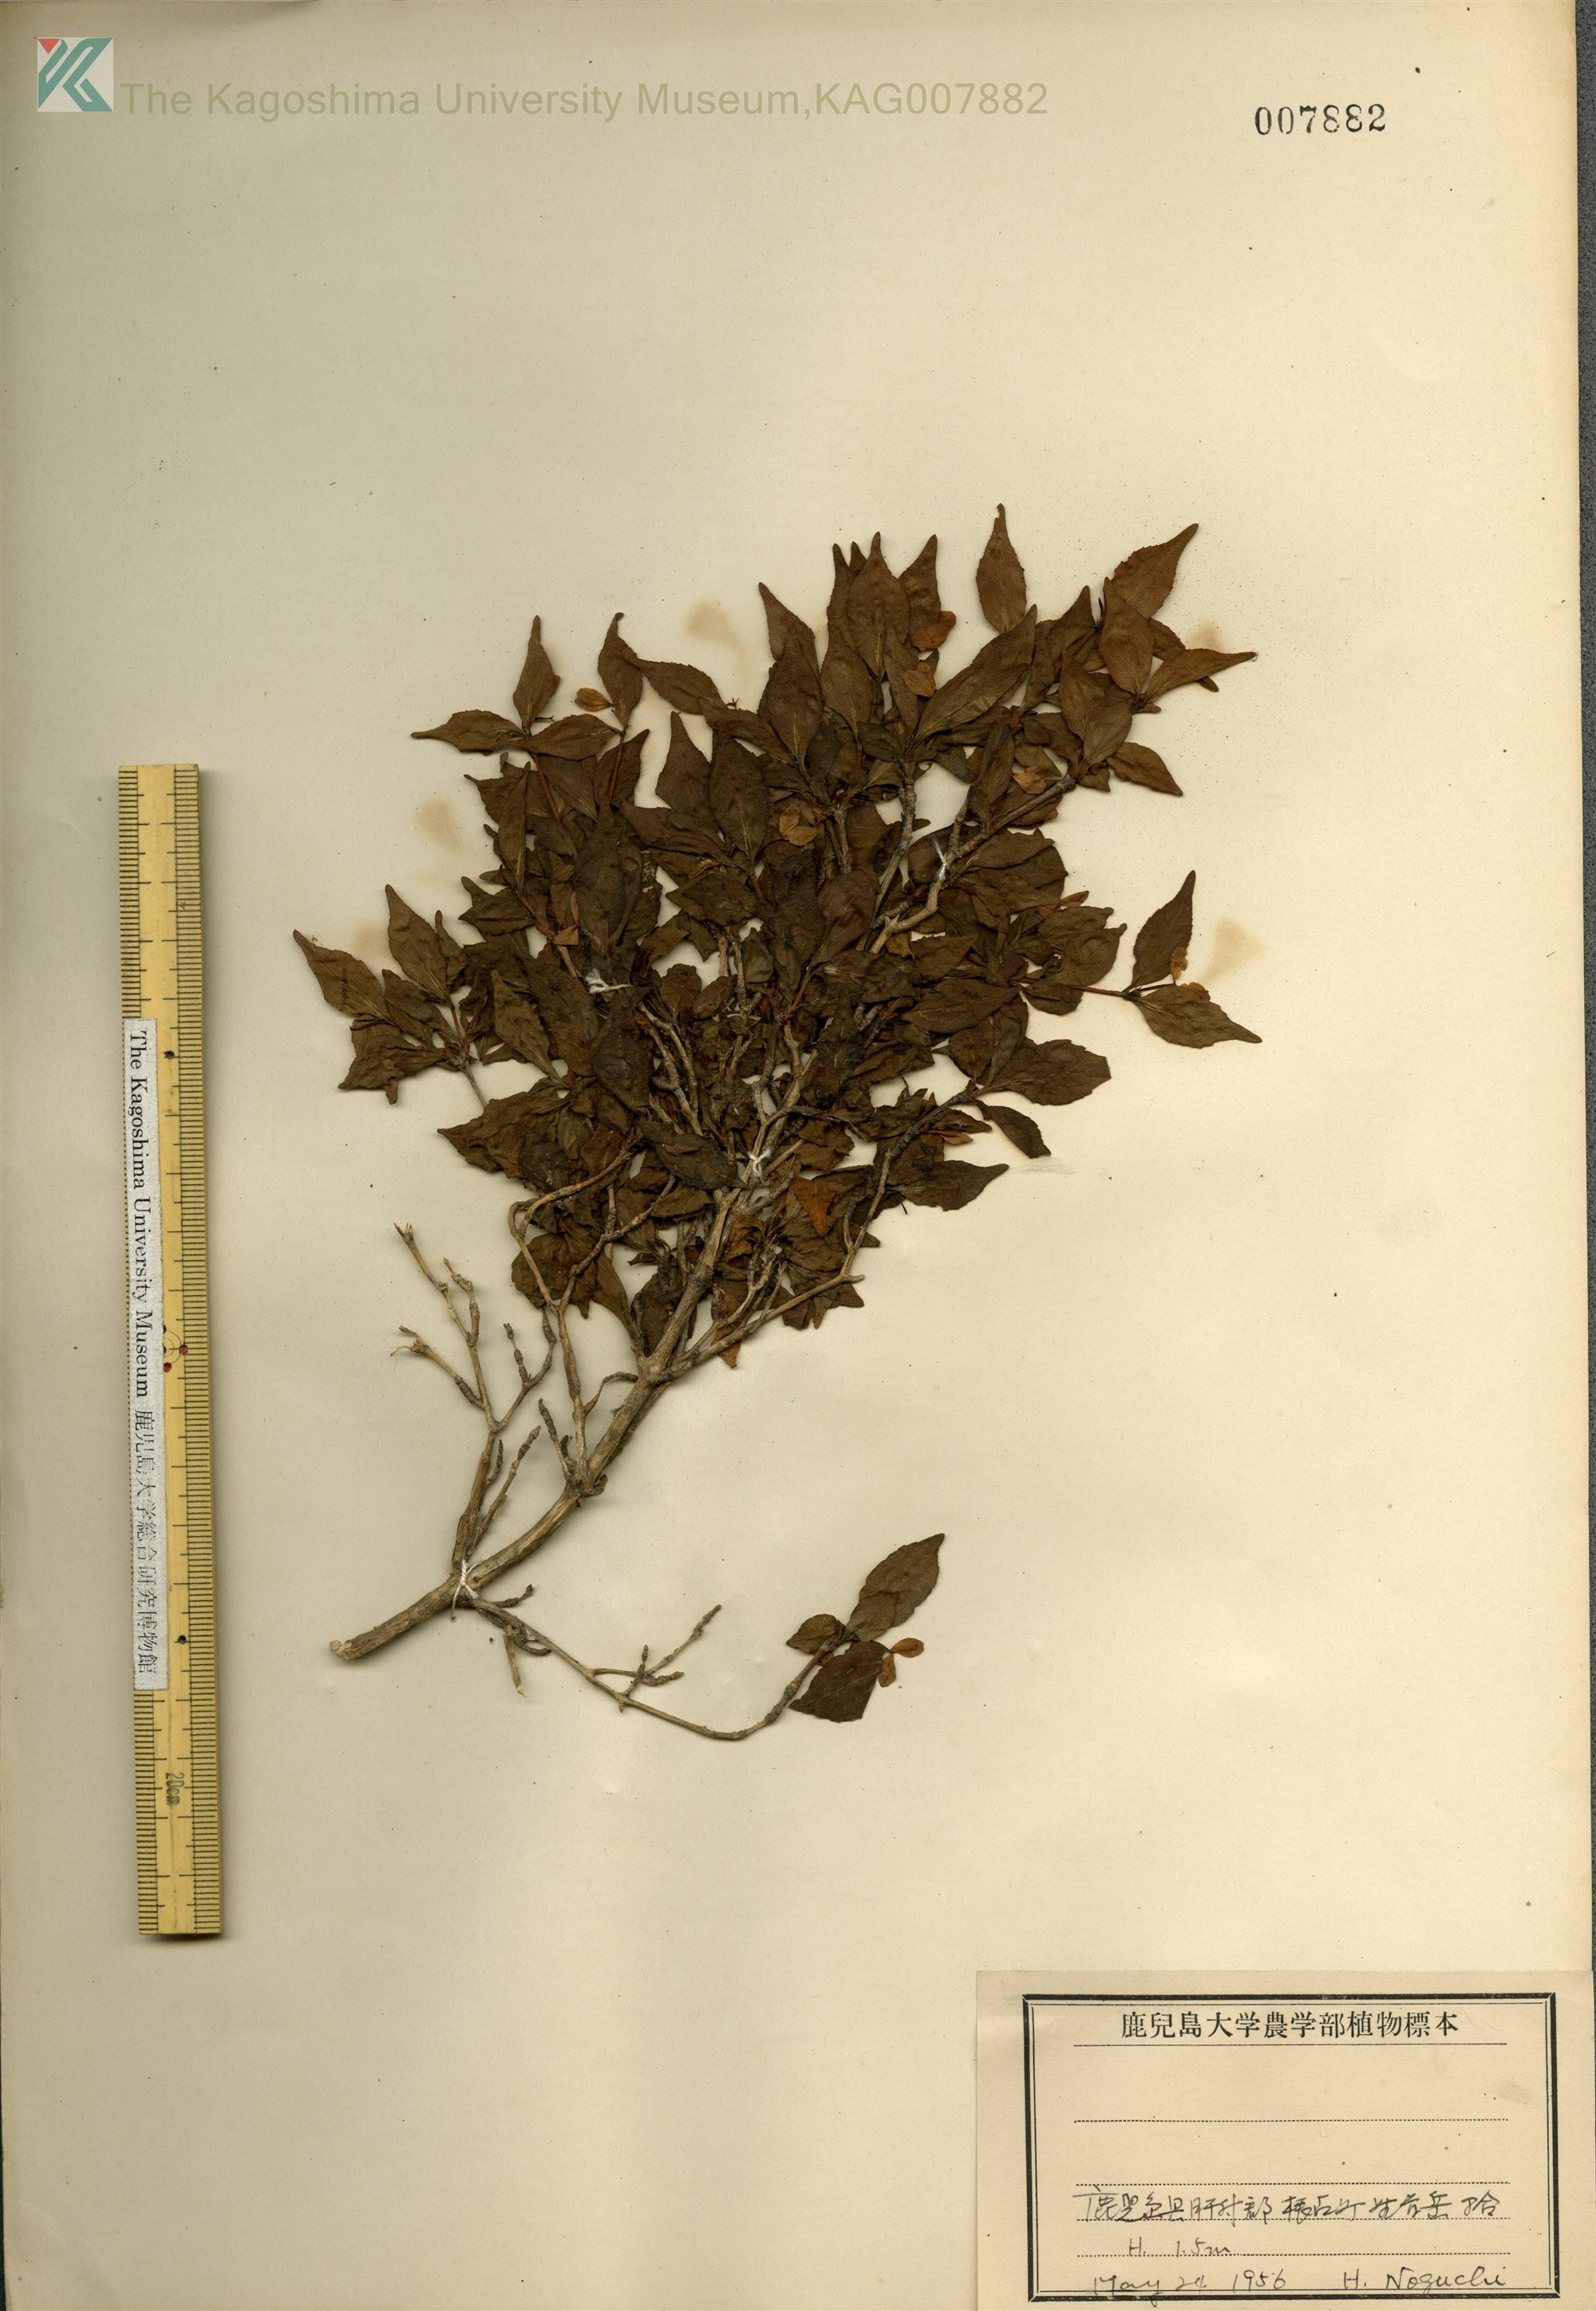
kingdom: Plantae
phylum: Tracheophyta
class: Magnoliopsida
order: Dipsacales
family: Caprifoliaceae
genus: Diabelia
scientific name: Diabelia serrata
